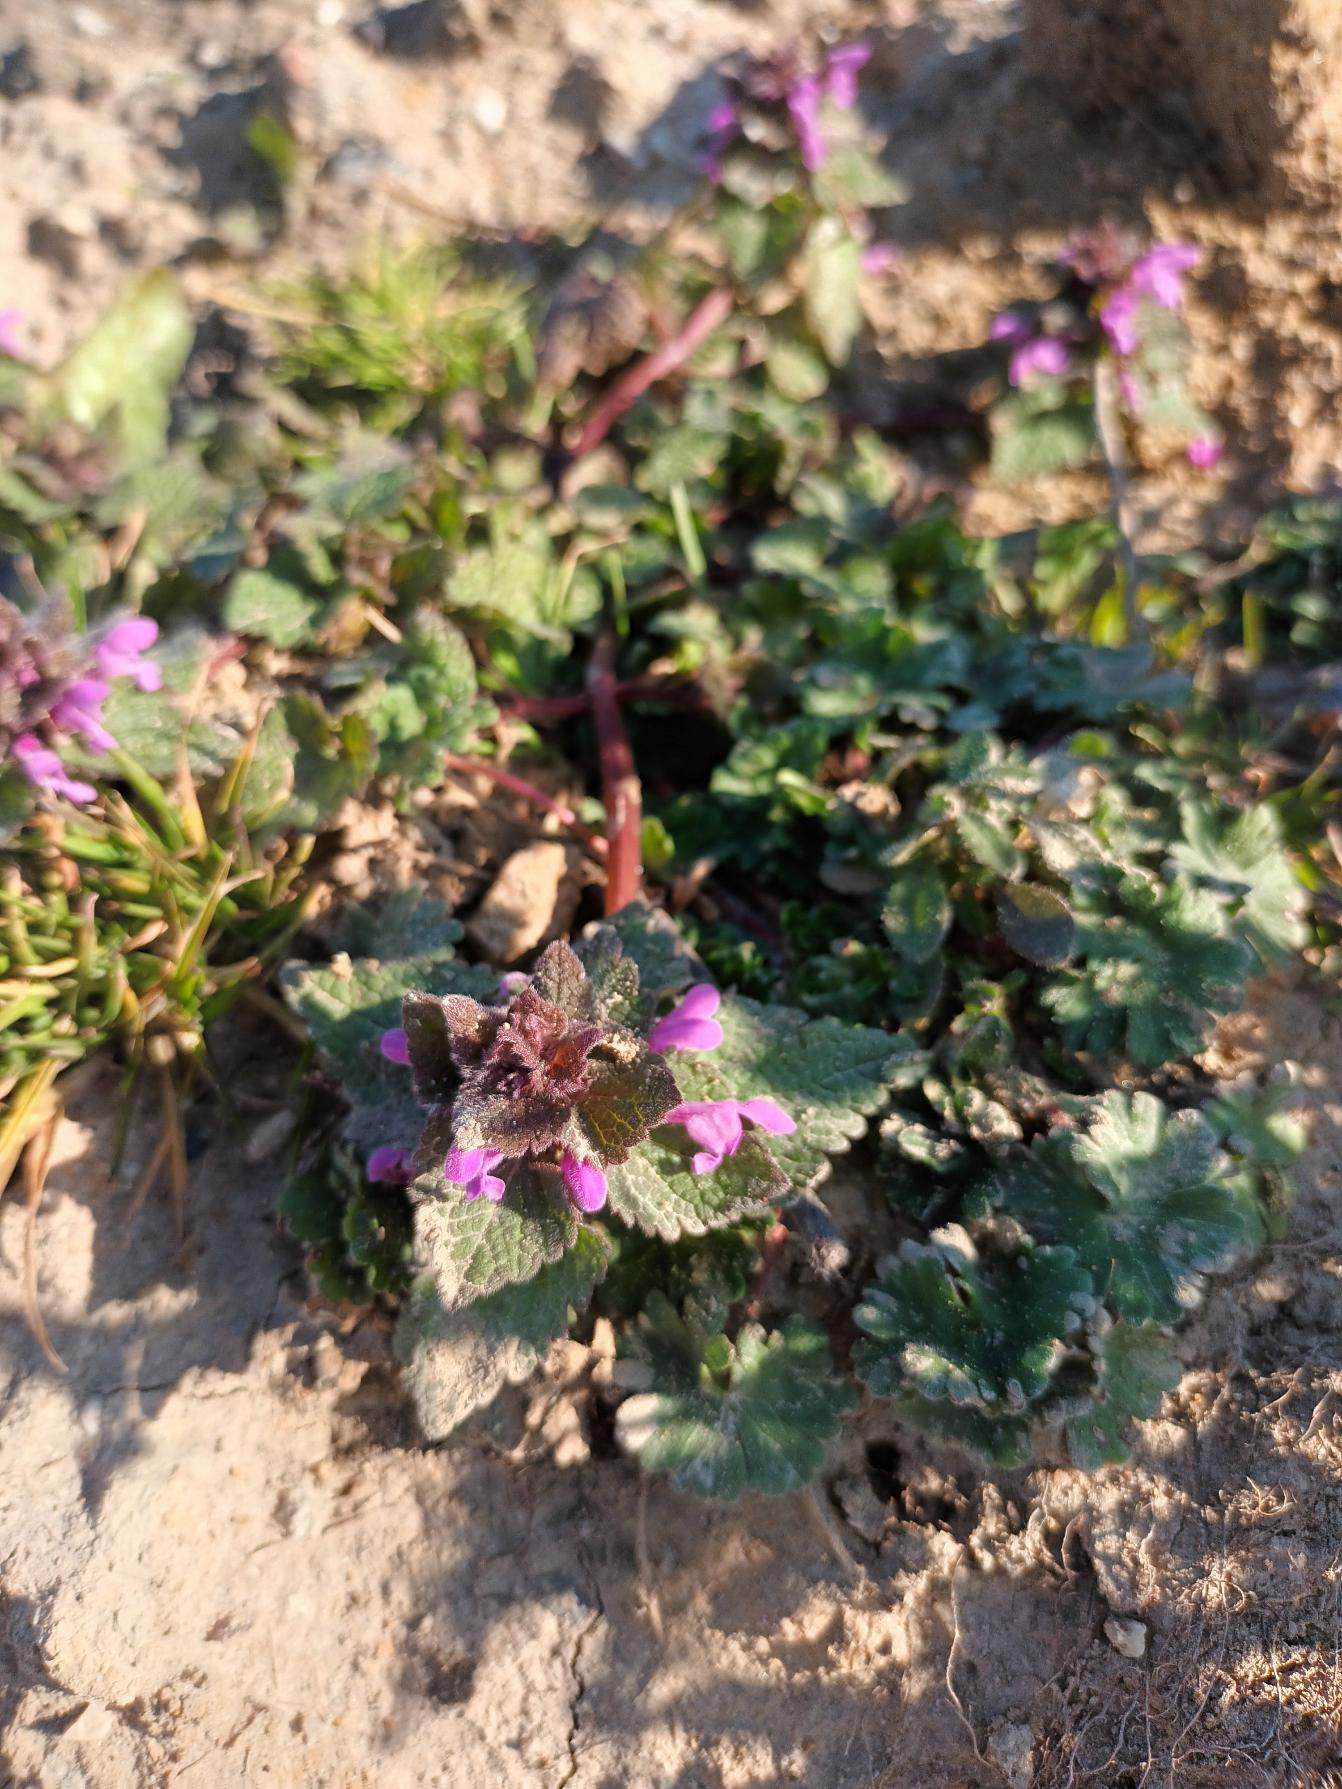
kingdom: Plantae
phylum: Tracheophyta
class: Magnoliopsida
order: Lamiales
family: Lamiaceae
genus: Lamium
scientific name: Lamium purpureum
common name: Rød tvetand
